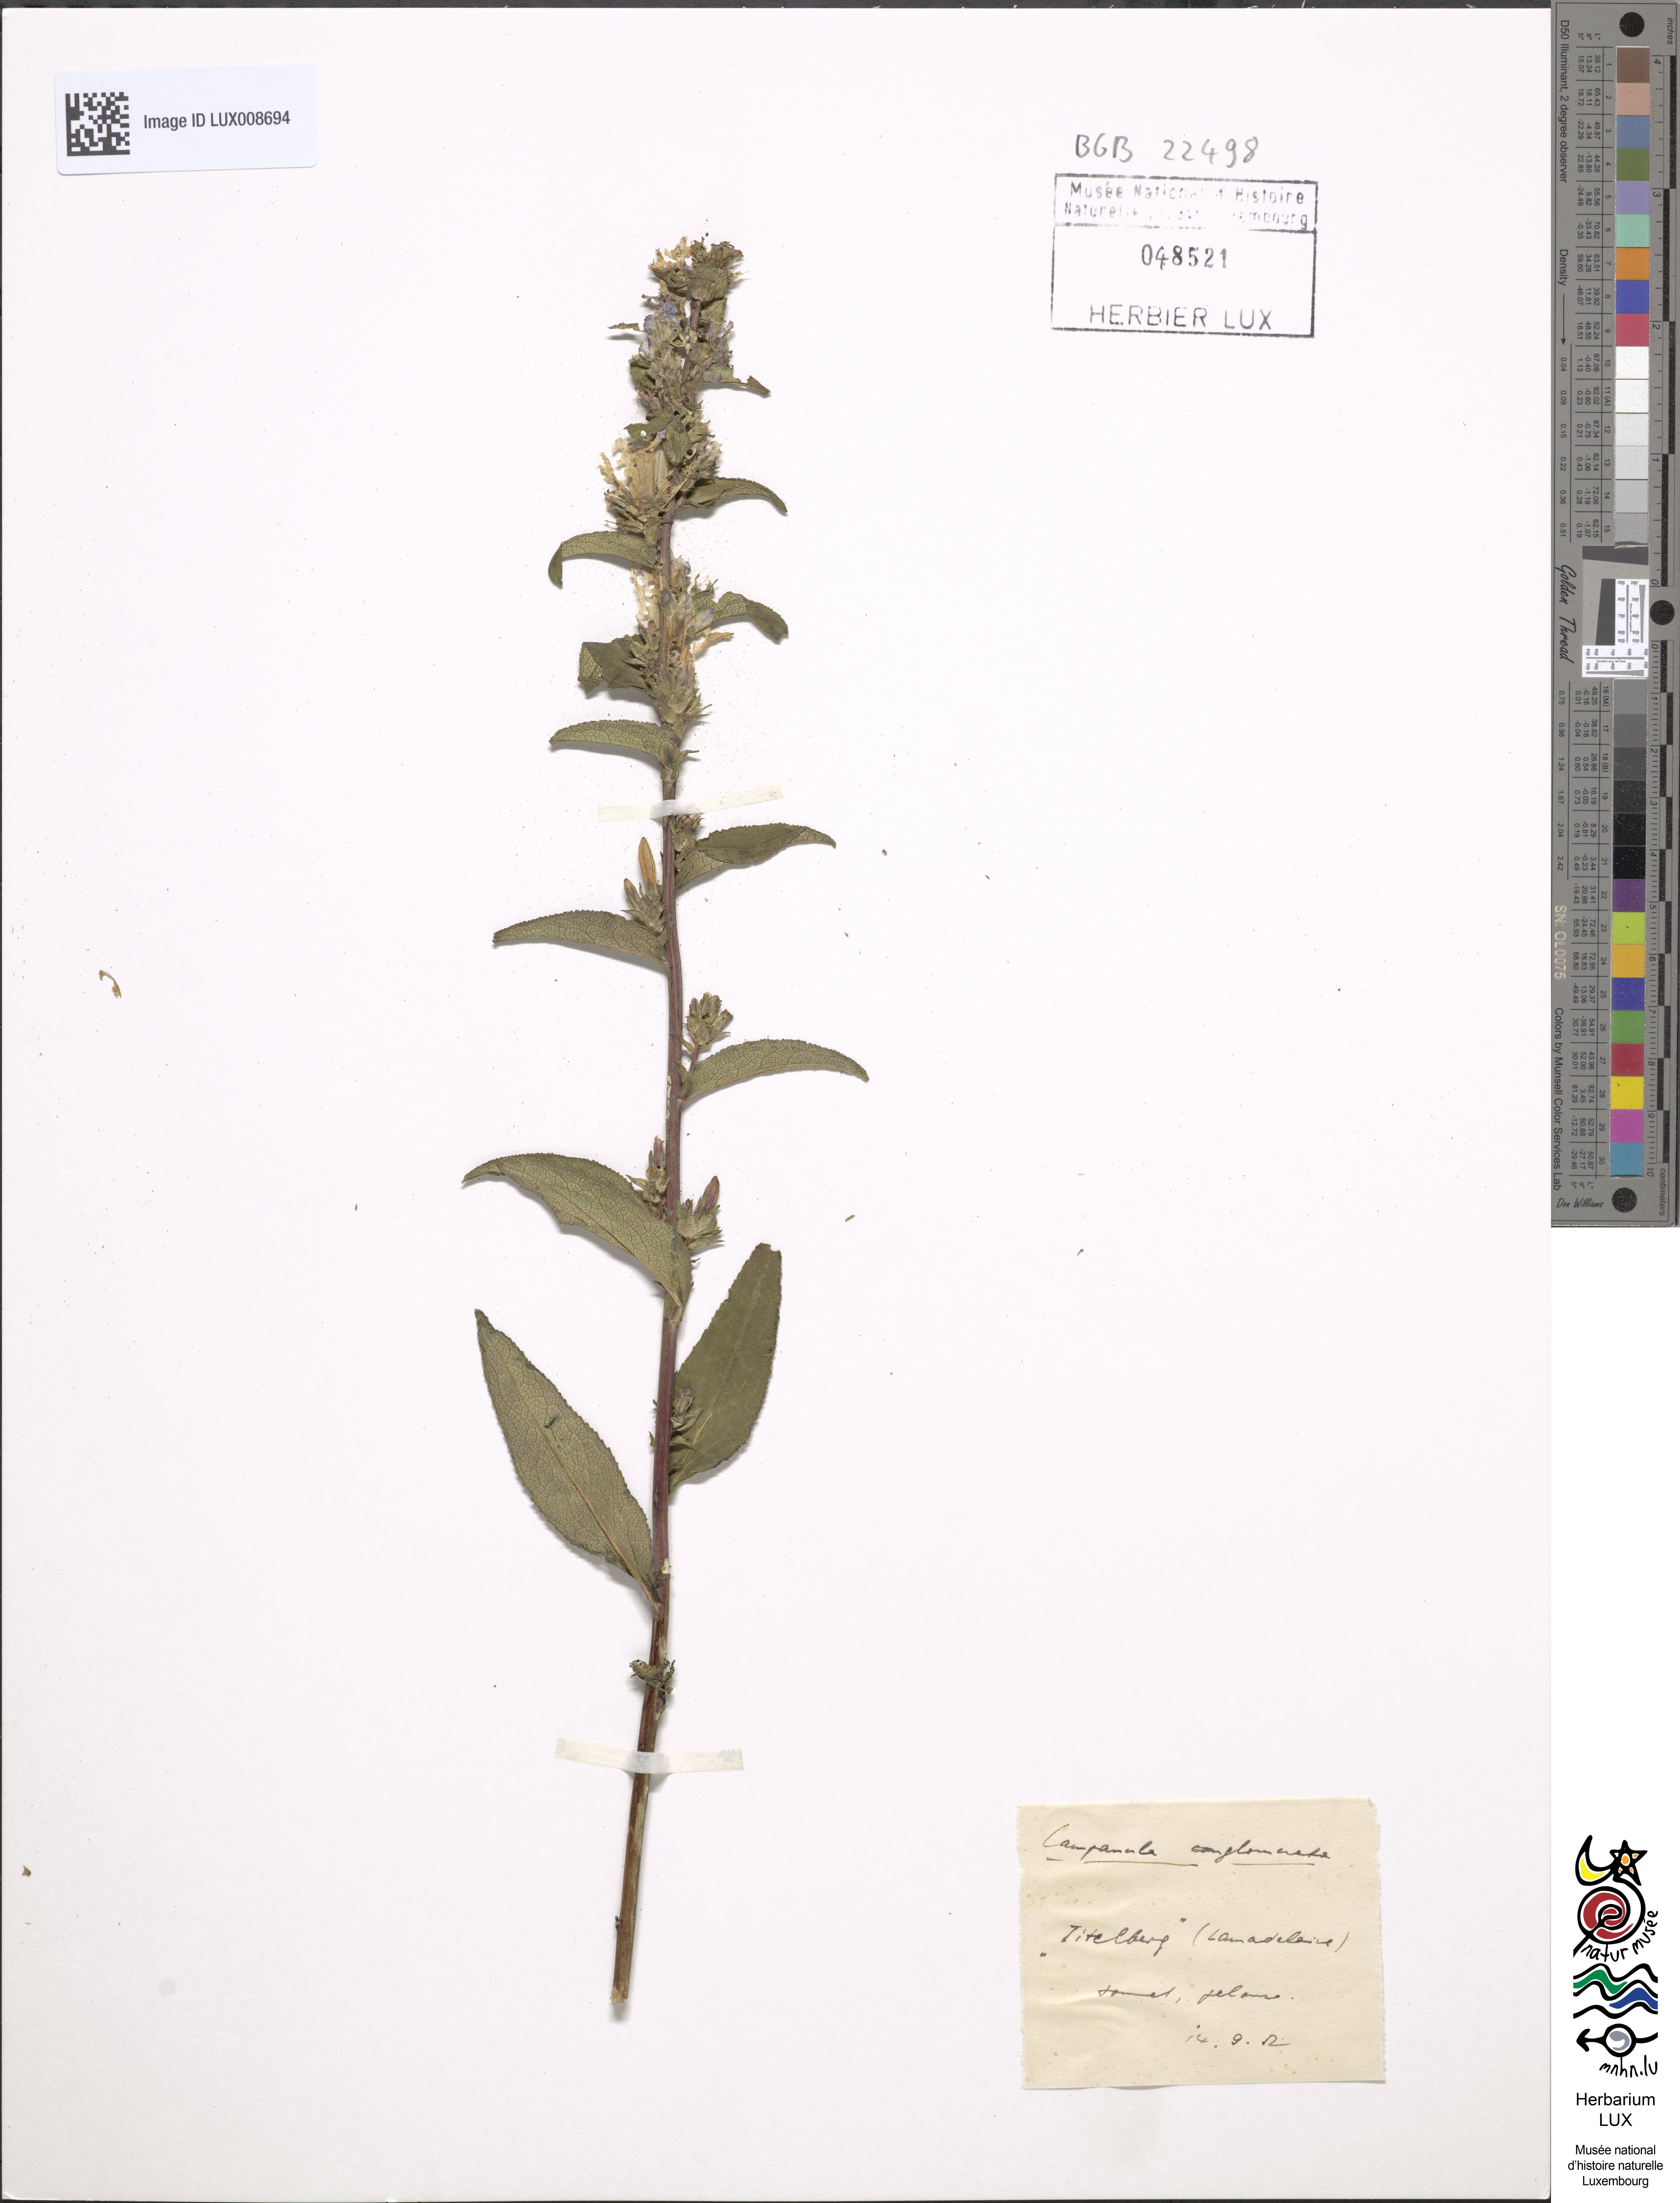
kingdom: Plantae
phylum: Tracheophyta
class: Magnoliopsida
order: Asterales
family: Campanulaceae
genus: Campanula
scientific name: Campanula glomerata
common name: Clustered bellflower
